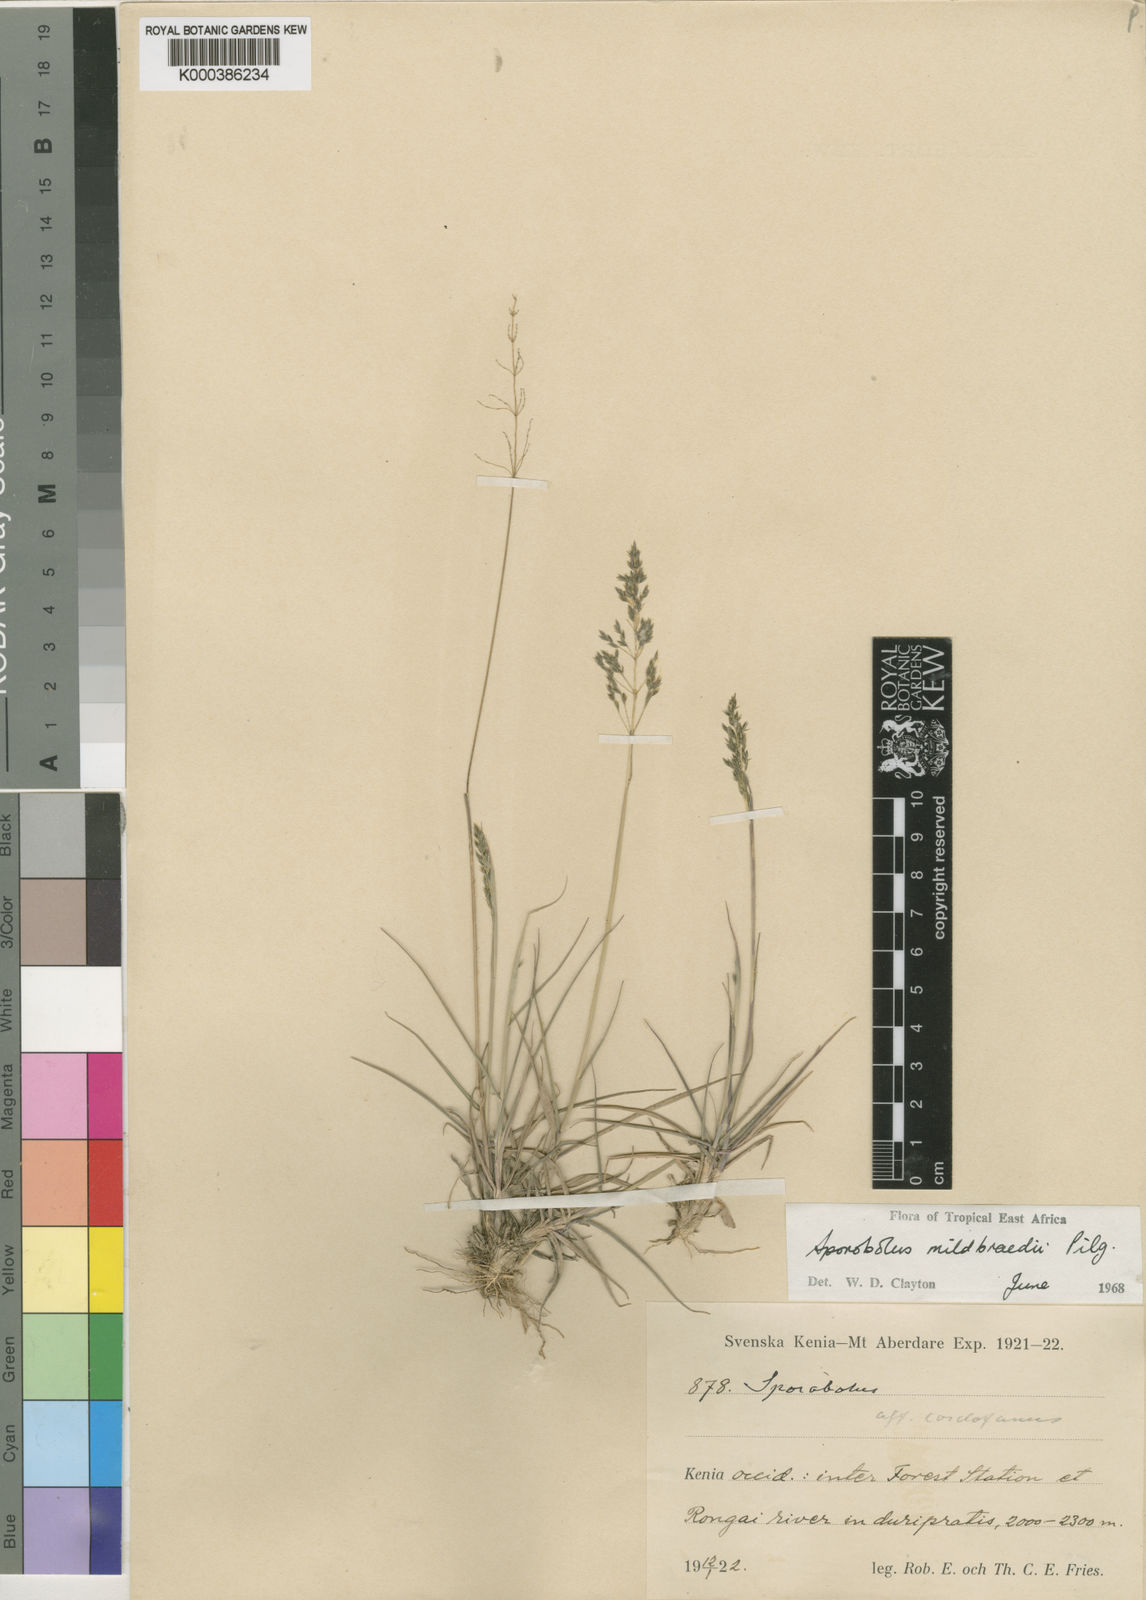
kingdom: Plantae
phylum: Tracheophyta
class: Liliopsida
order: Poales
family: Poaceae
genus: Sporobolus
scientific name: Sporobolus mildbraedii
